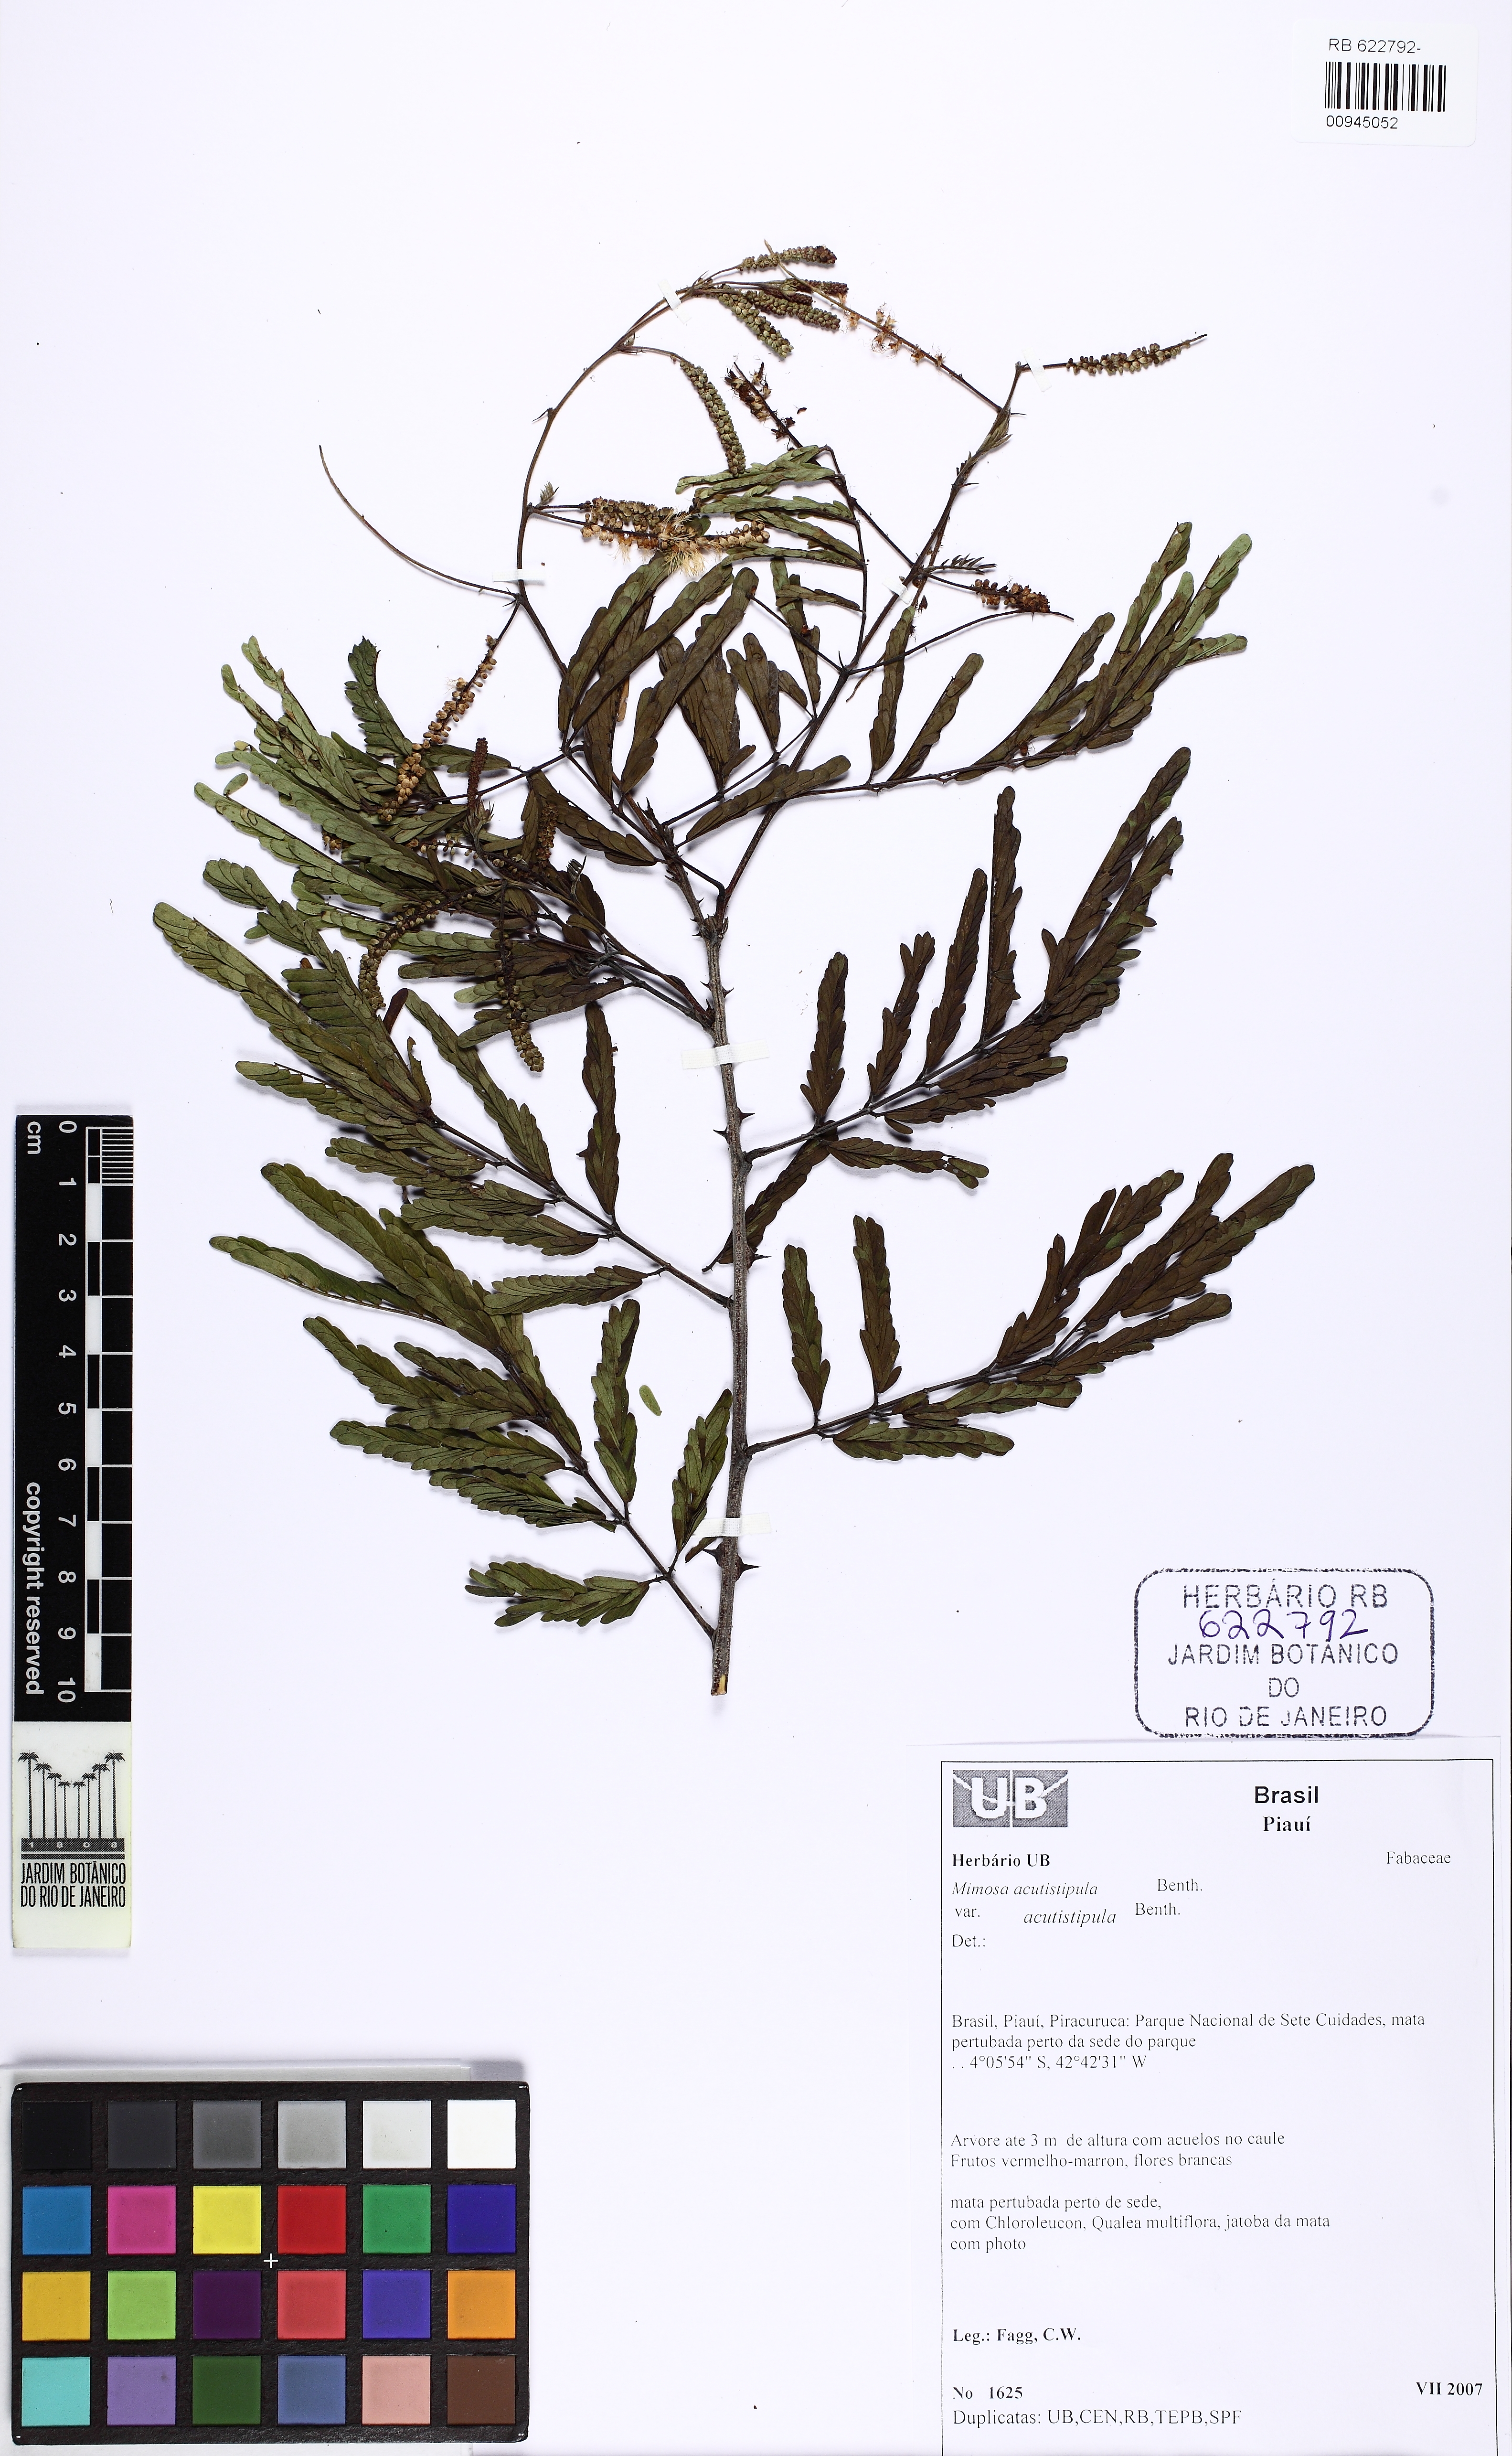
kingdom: Plantae
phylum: Tracheophyta
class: Magnoliopsida
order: Fabales
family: Fabaceae
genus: Mimosa
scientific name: Mimosa acutistipula
